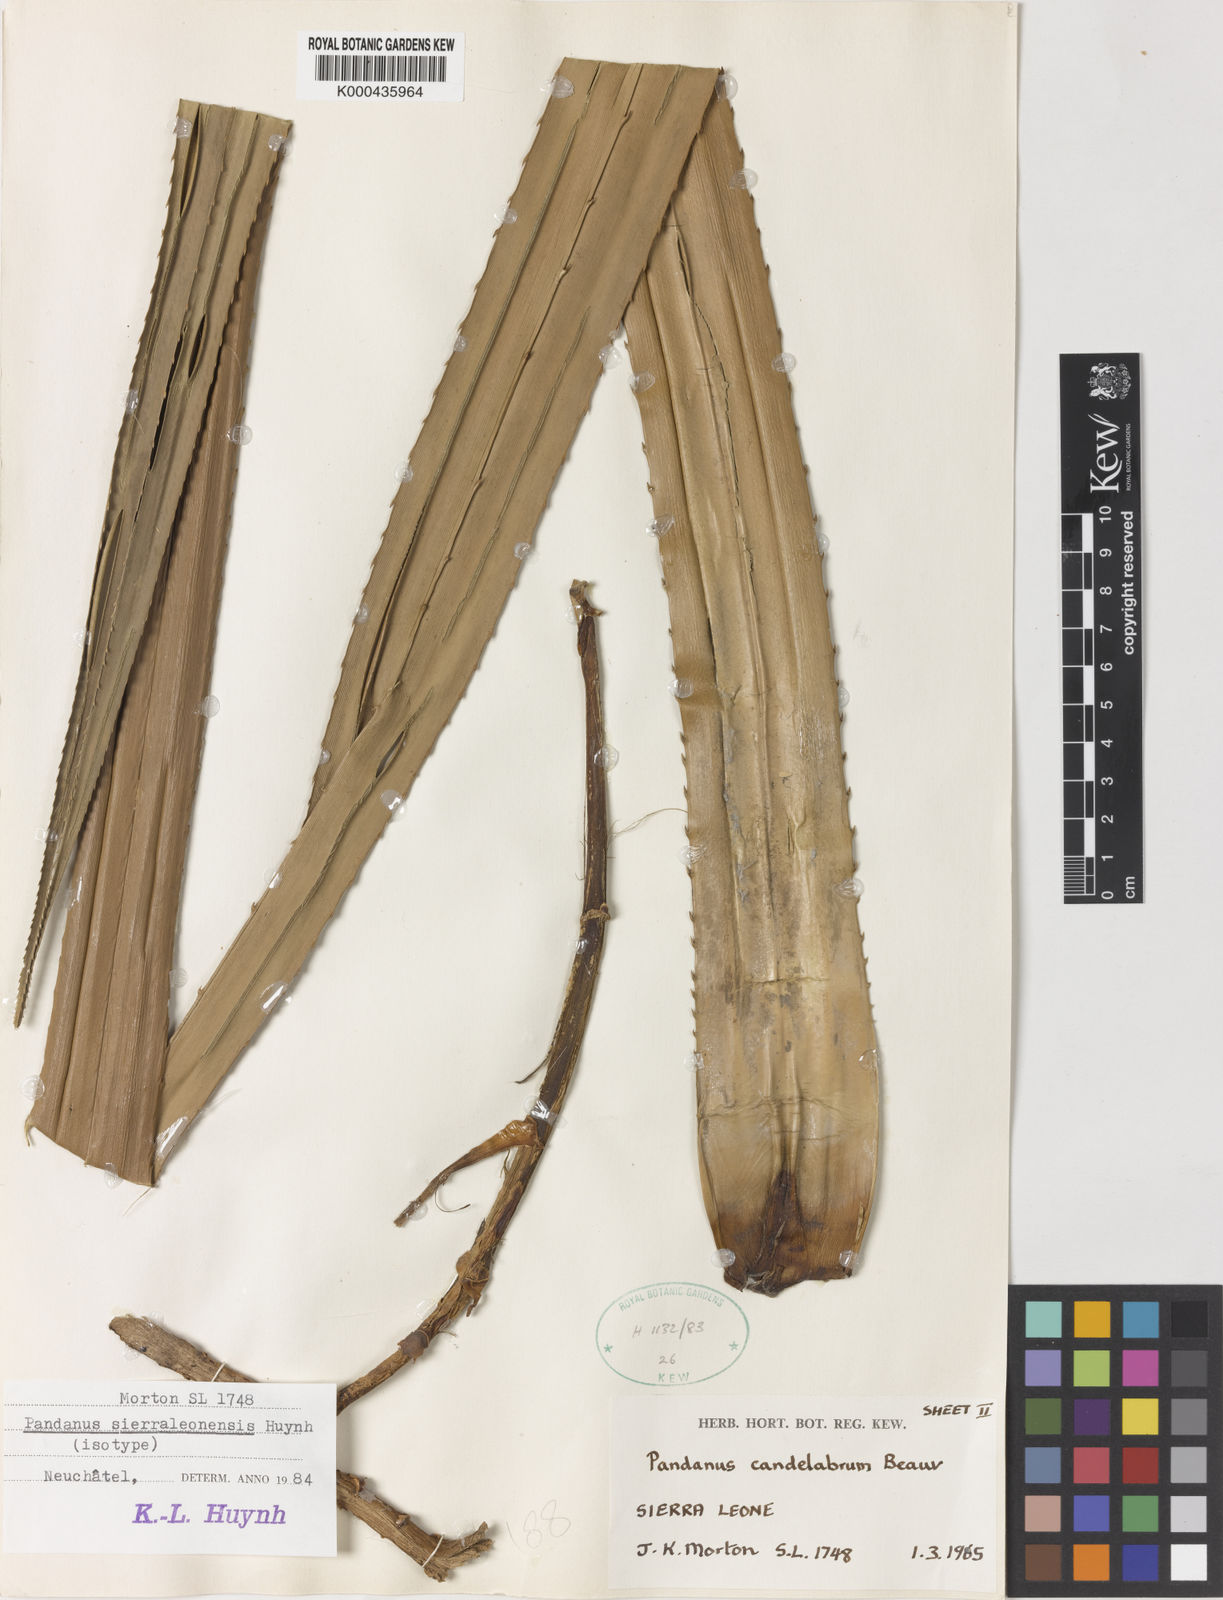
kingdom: Plantae
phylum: Tracheophyta
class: Liliopsida
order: Pandanales
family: Pandanaceae
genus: Pandanus
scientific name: Pandanus candelabrum
